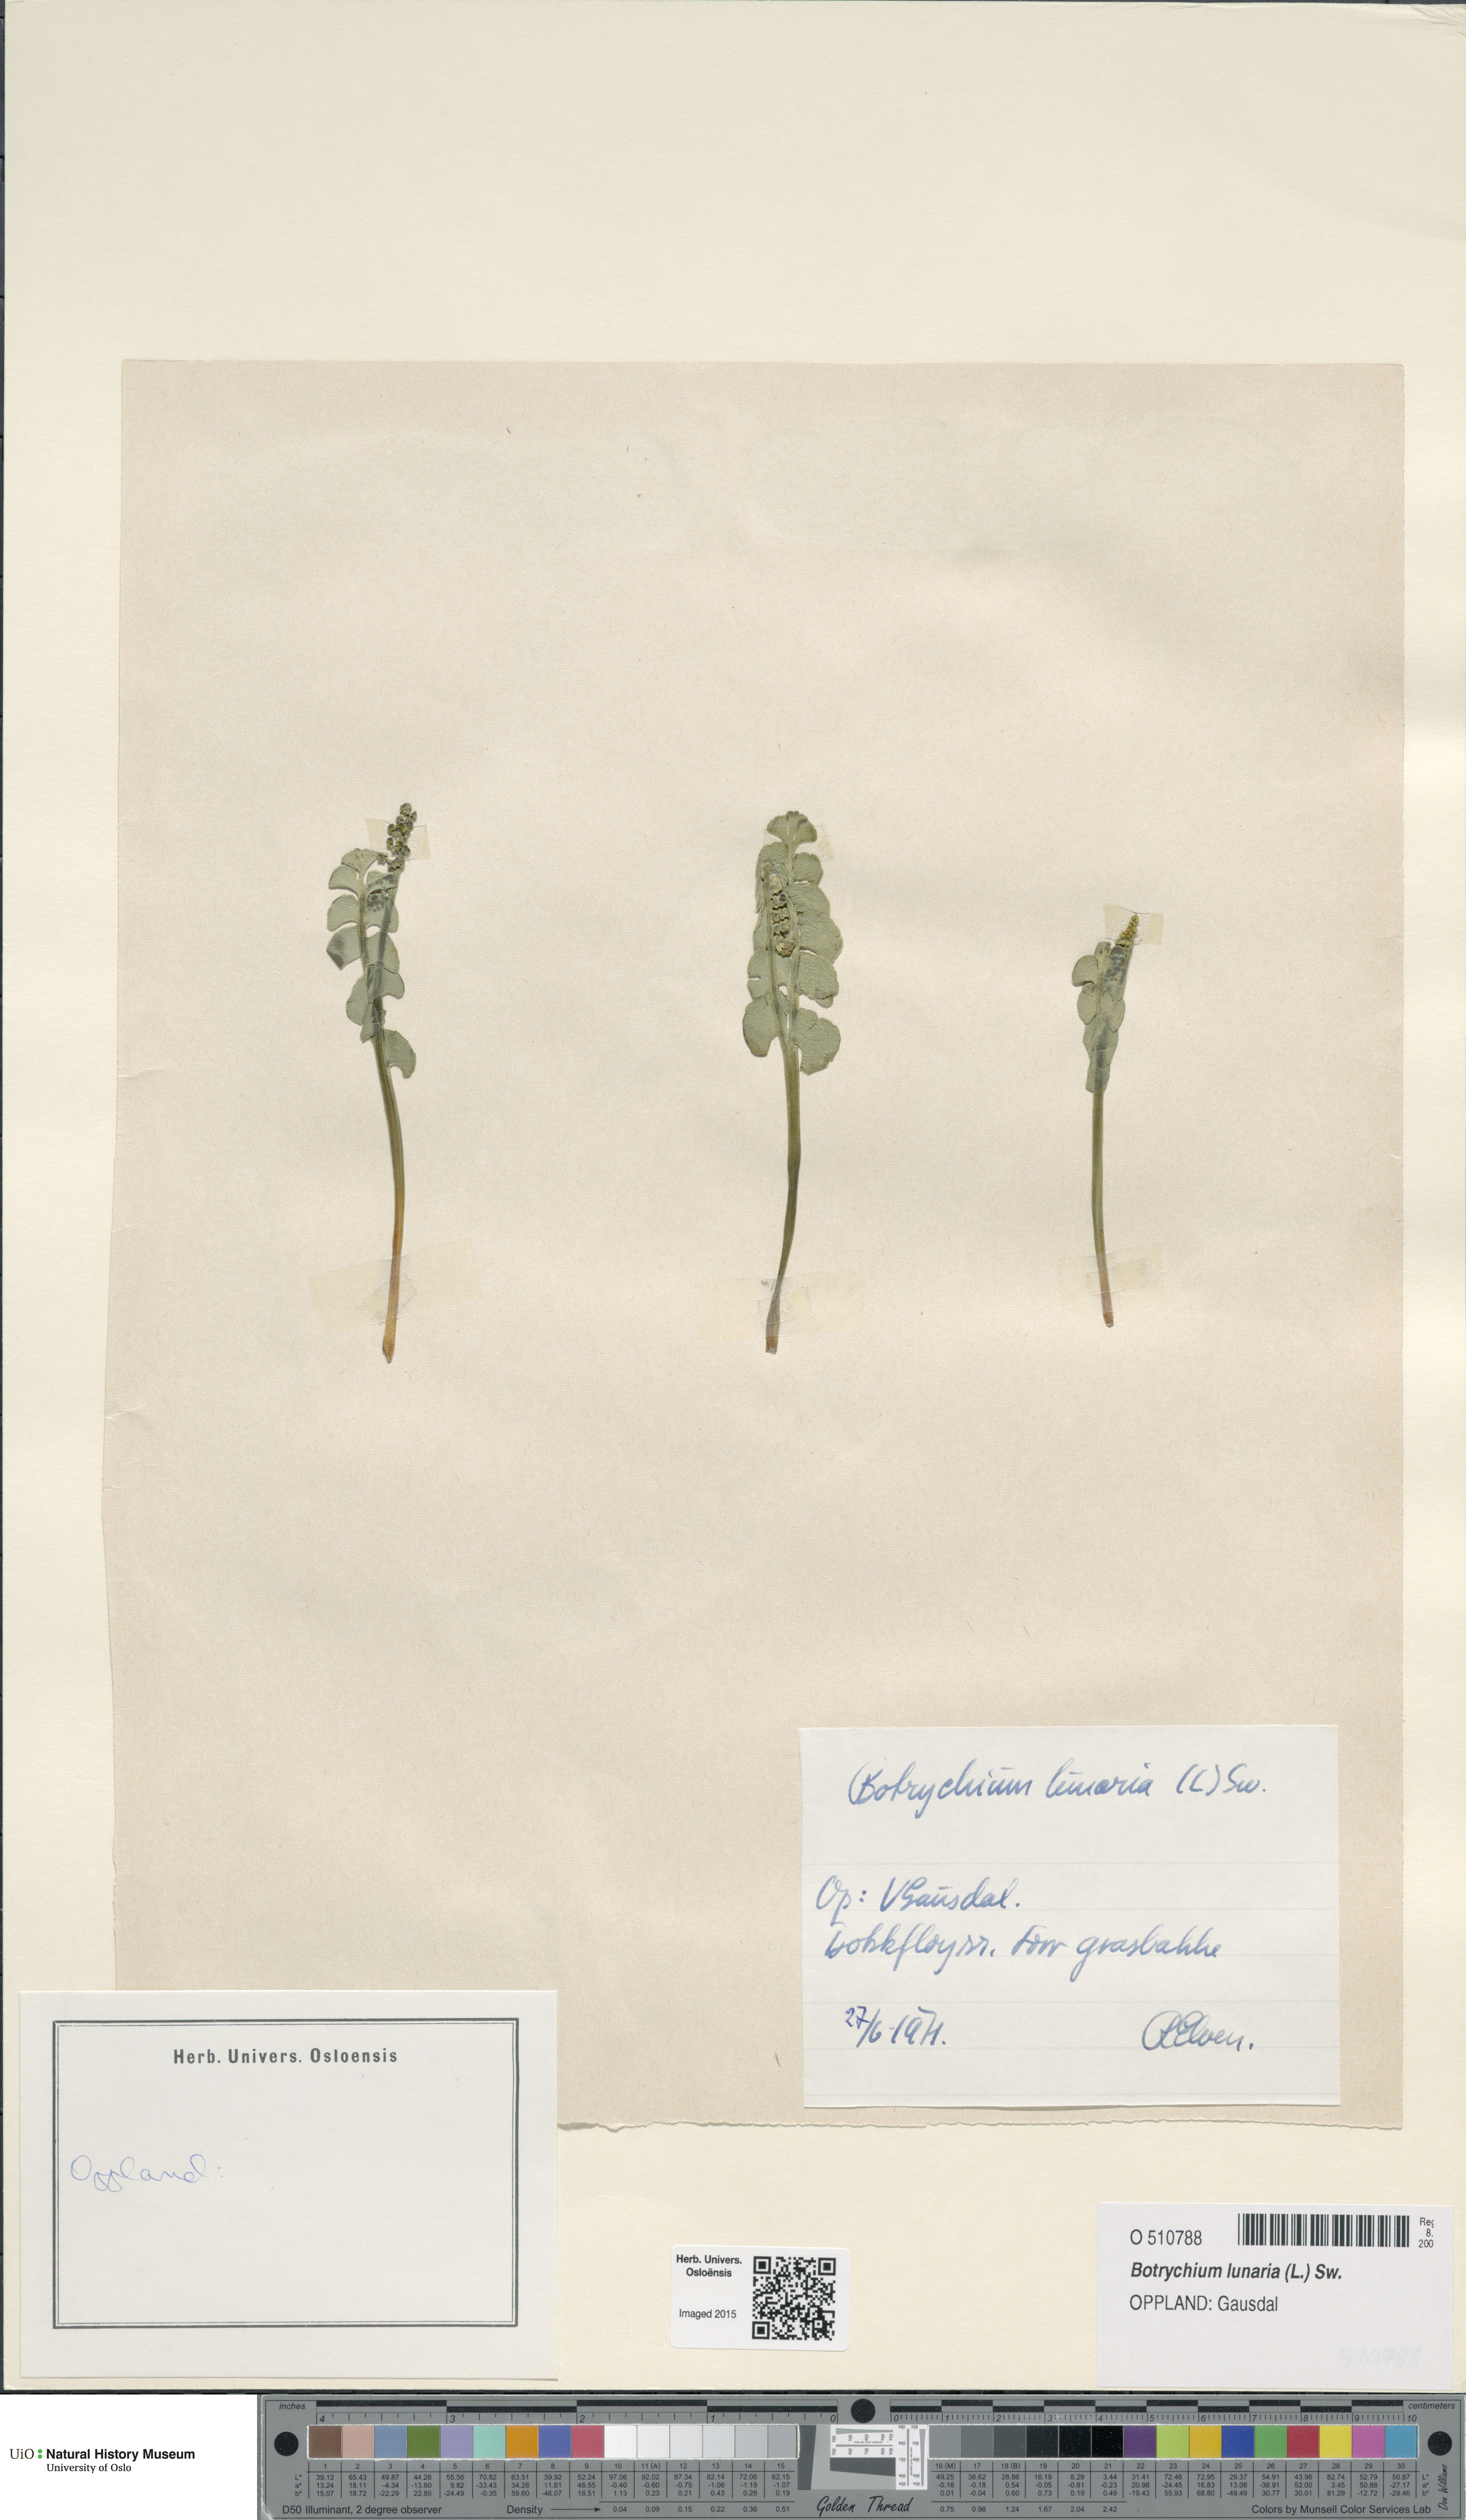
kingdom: Plantae
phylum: Tracheophyta
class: Polypodiopsida
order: Ophioglossales
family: Ophioglossaceae
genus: Botrychium
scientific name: Botrychium lunaria
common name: Moonwort
